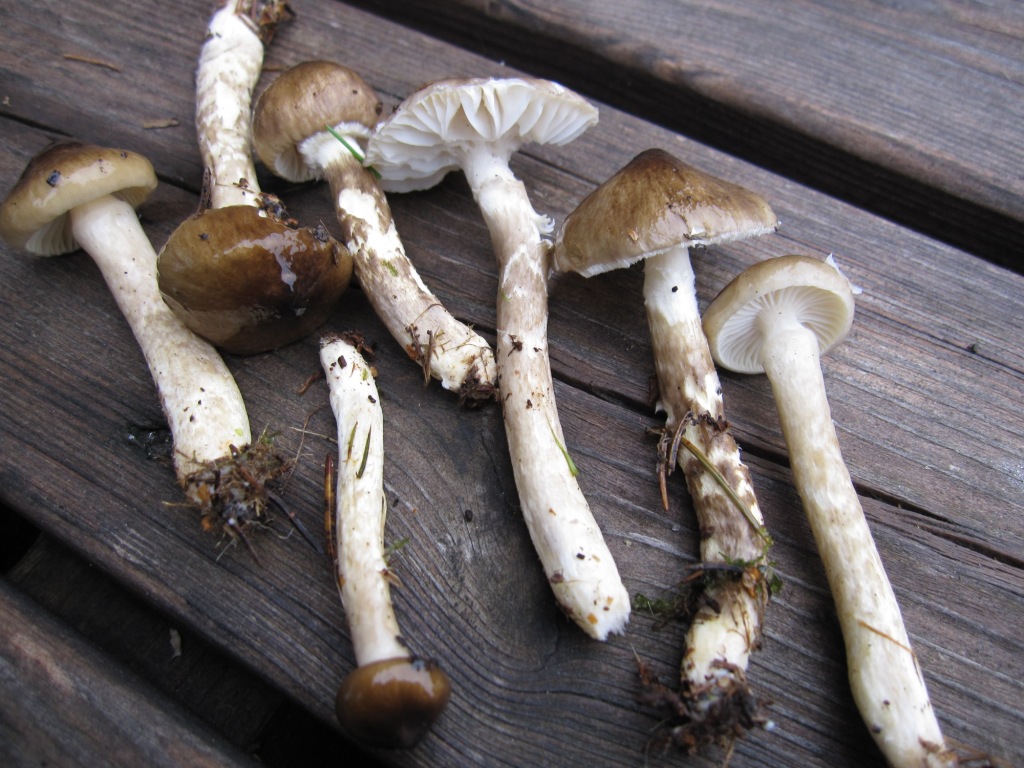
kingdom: Fungi
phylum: Basidiomycota
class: Agaricomycetes
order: Agaricales
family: Hygrophoraceae
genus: Hygrophorus
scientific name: Hygrophorus olivaceoalbus
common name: hvidbrun sneglehat
